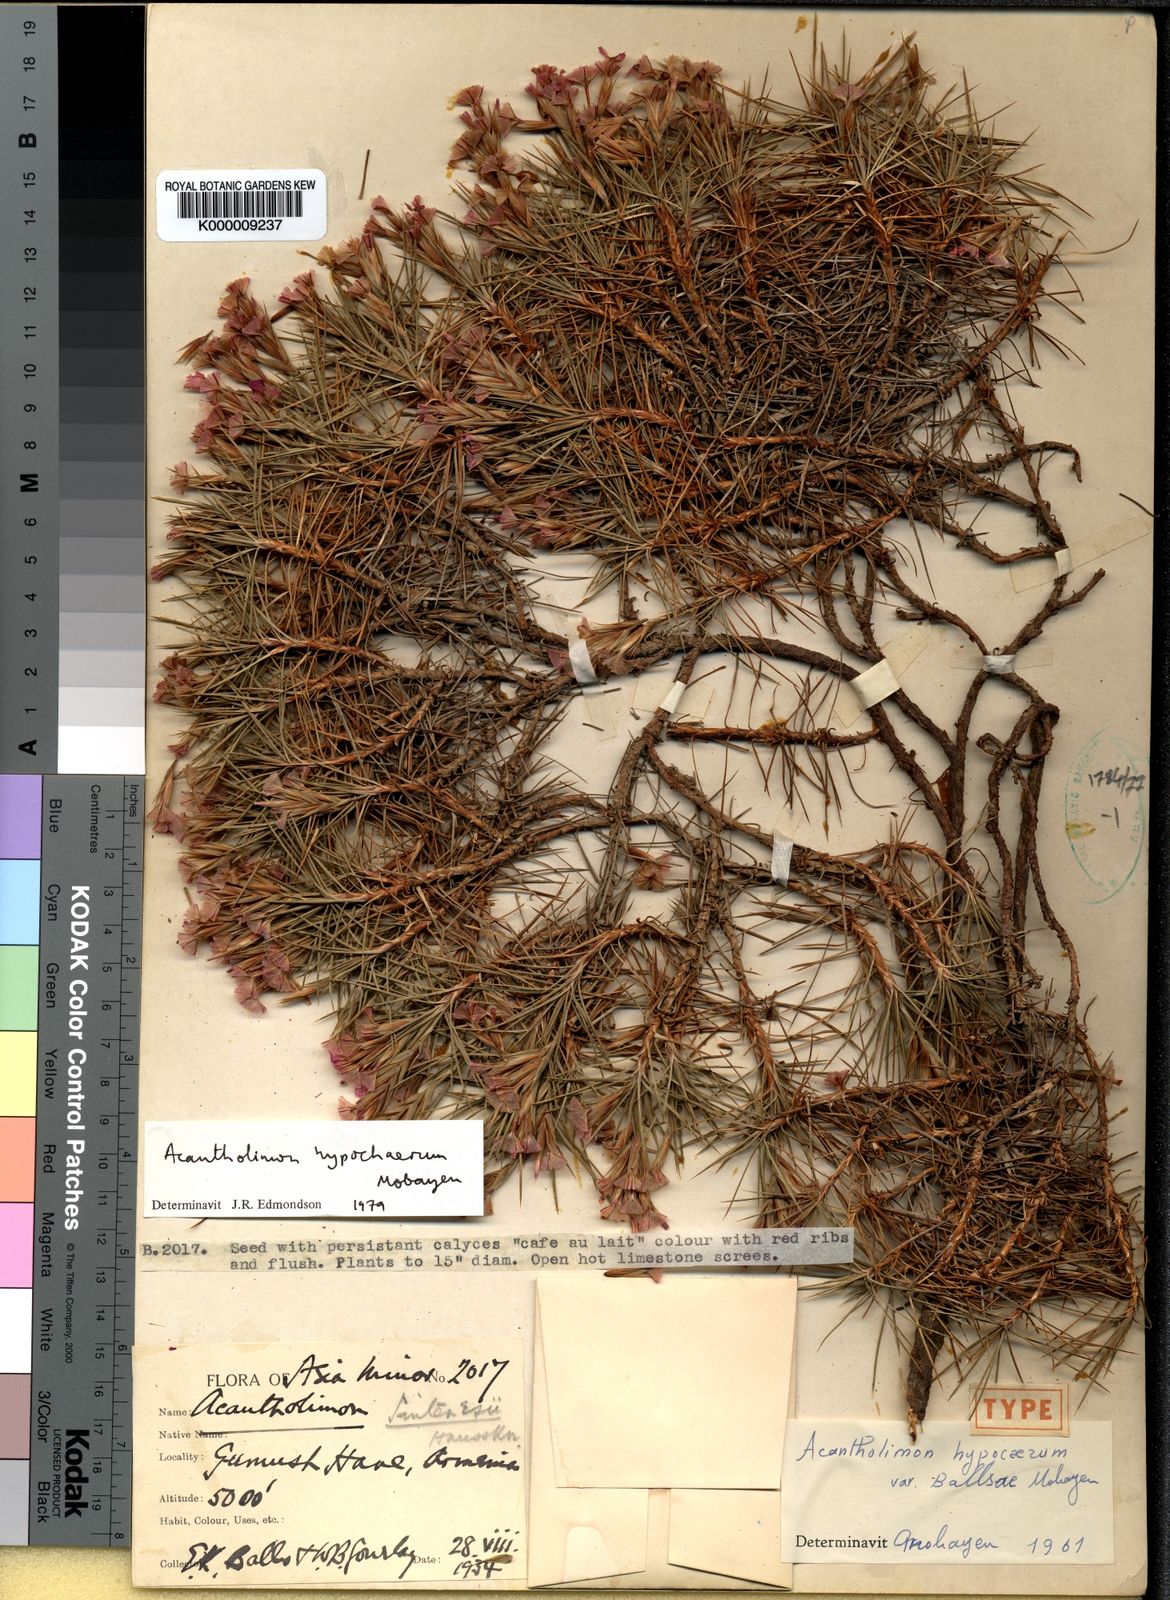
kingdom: Plantae
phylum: Tracheophyta
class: Magnoliopsida
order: Caryophyllales
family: Plumbaginaceae
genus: Acantholimon
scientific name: Acantholimon
